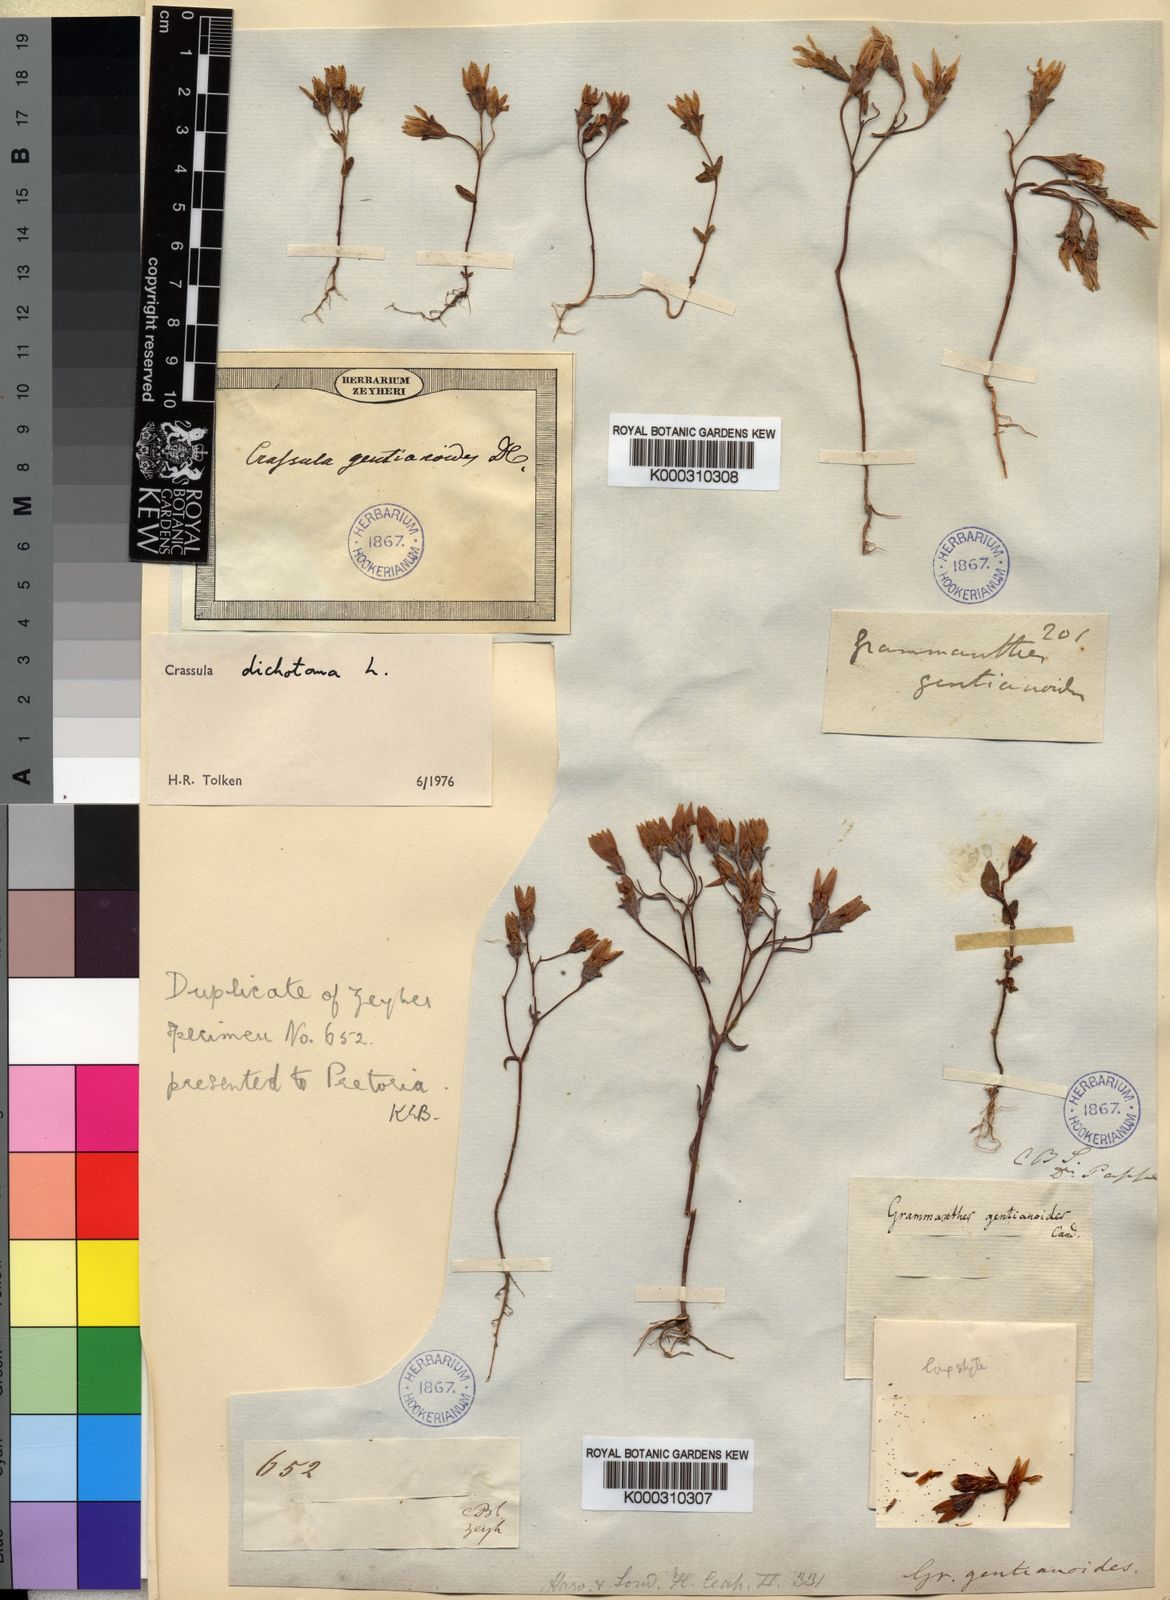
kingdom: Plantae
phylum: Tracheophyta
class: Magnoliopsida
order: Saxifragales
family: Crassulaceae
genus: Crassula
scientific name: Crassula dichotoma
